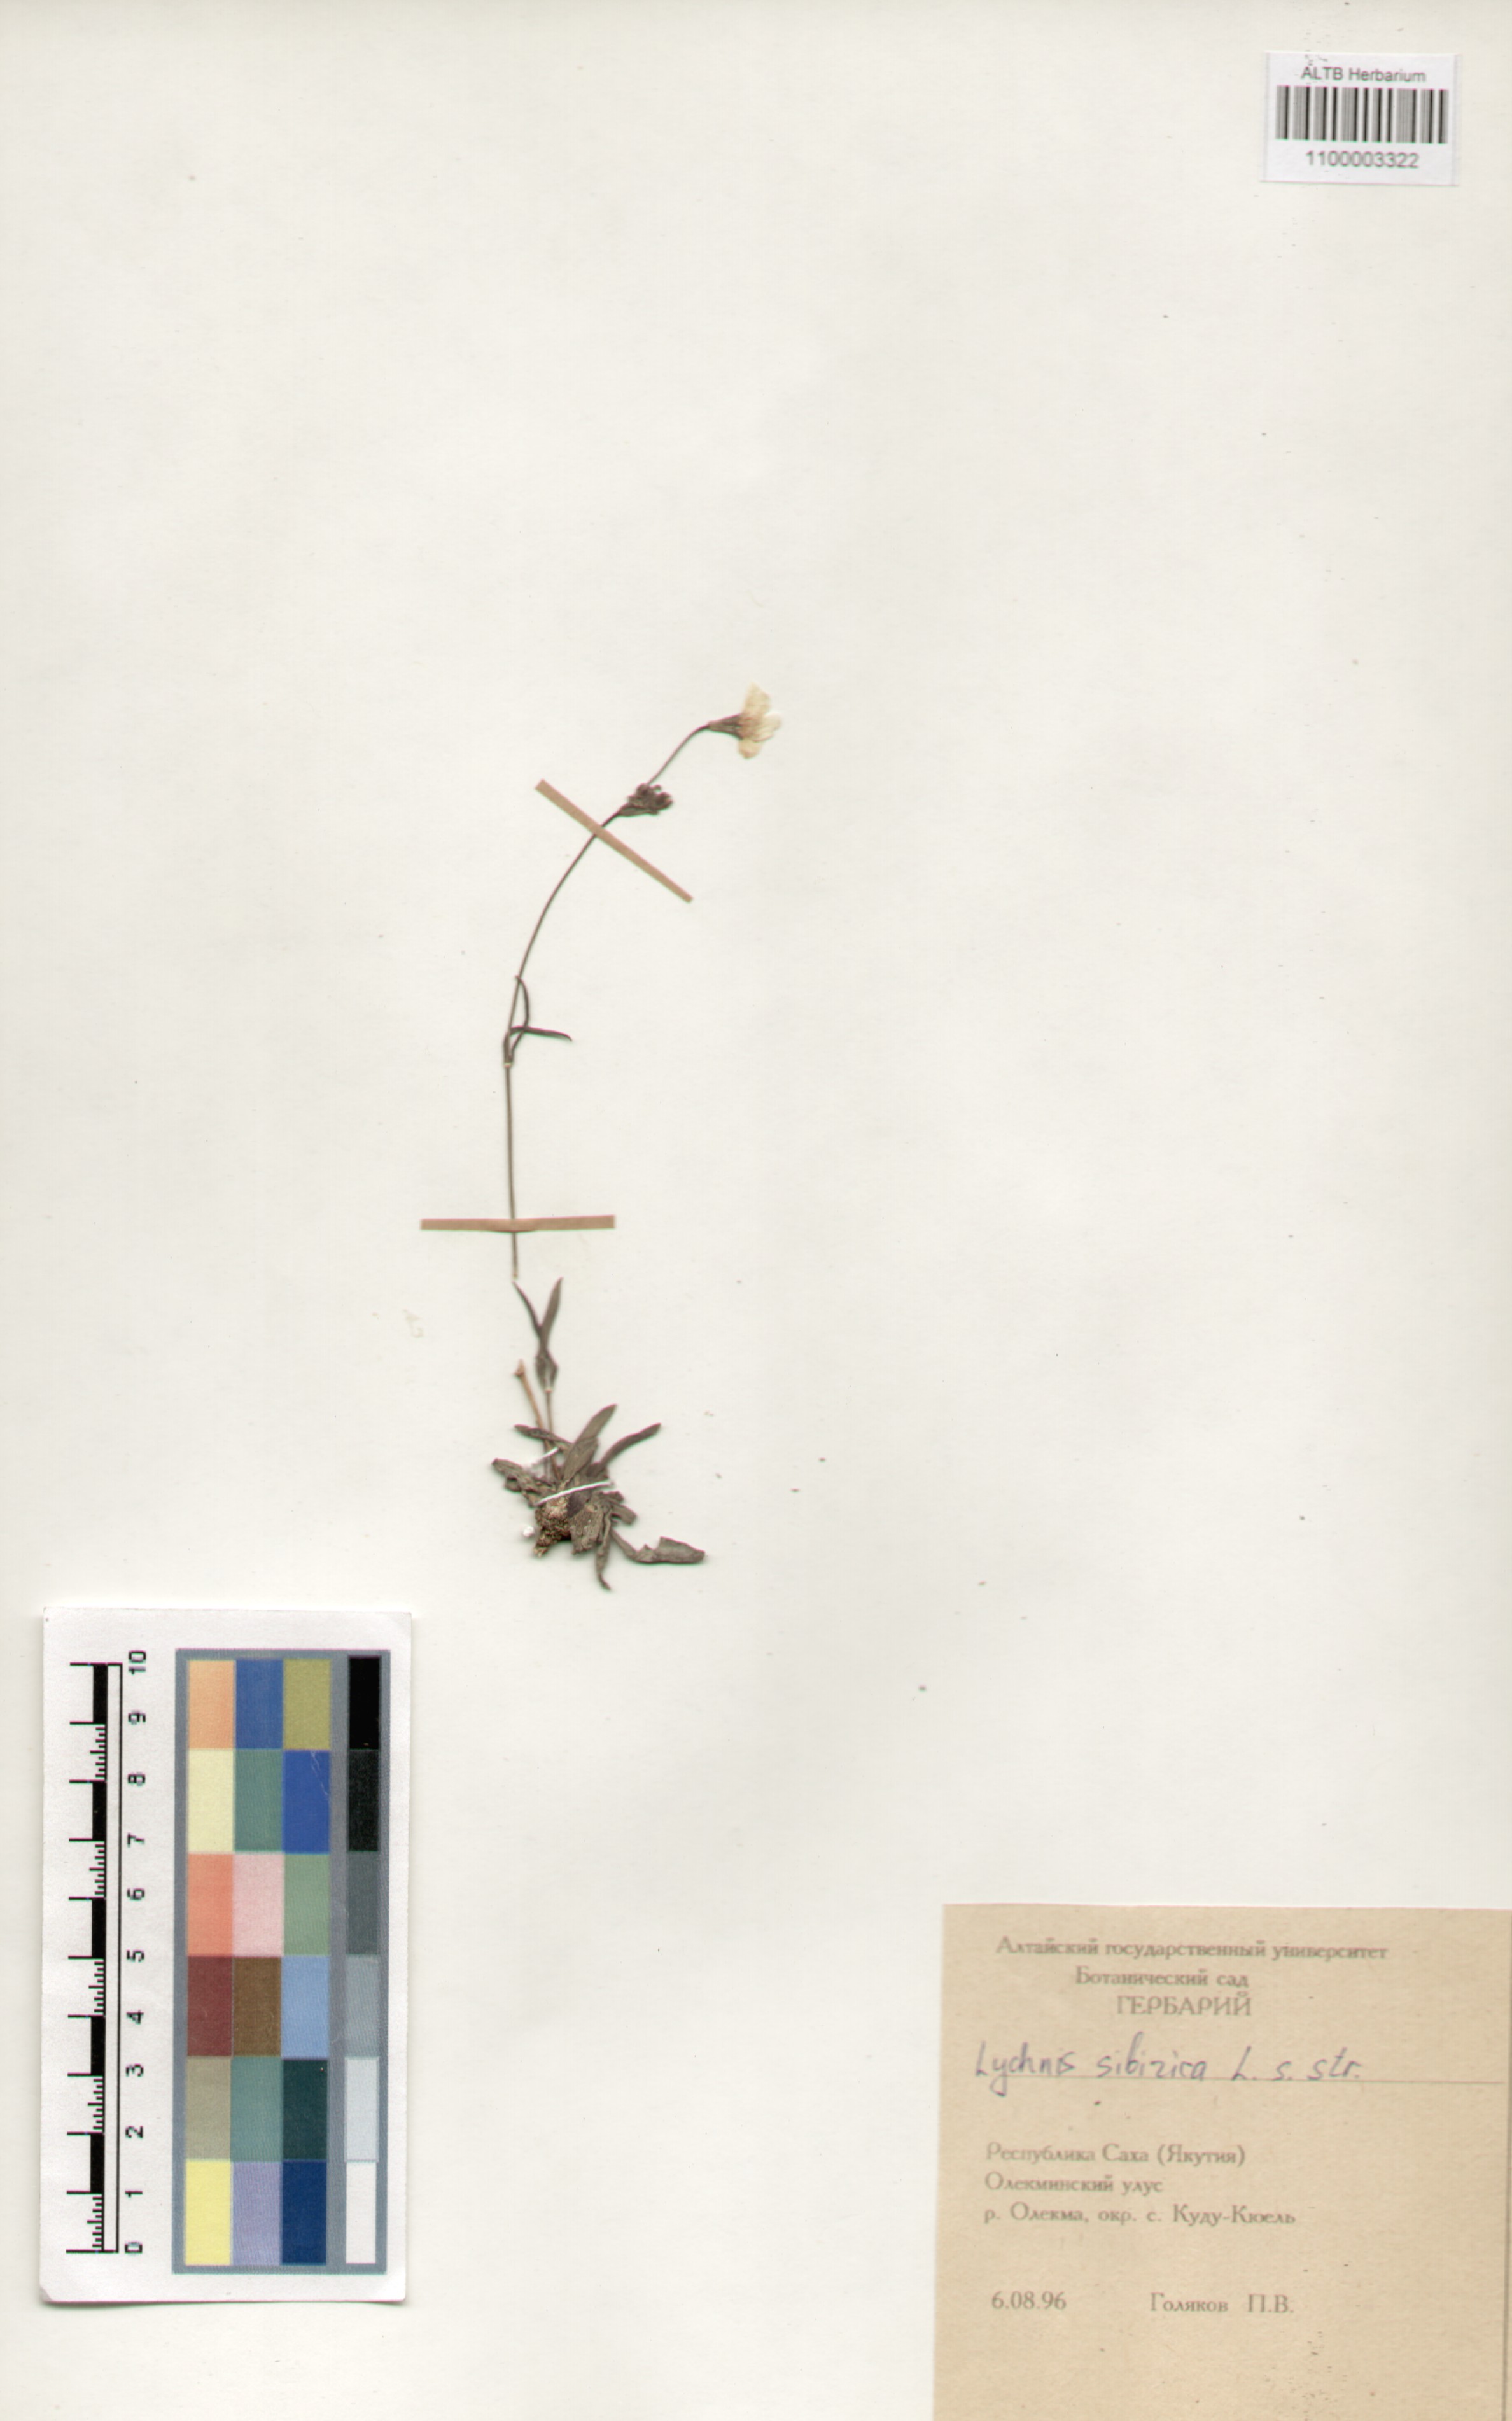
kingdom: Plantae
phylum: Tracheophyta
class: Magnoliopsida
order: Caryophyllales
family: Caryophyllaceae
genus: Silene
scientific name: Silene orientalimongolica
